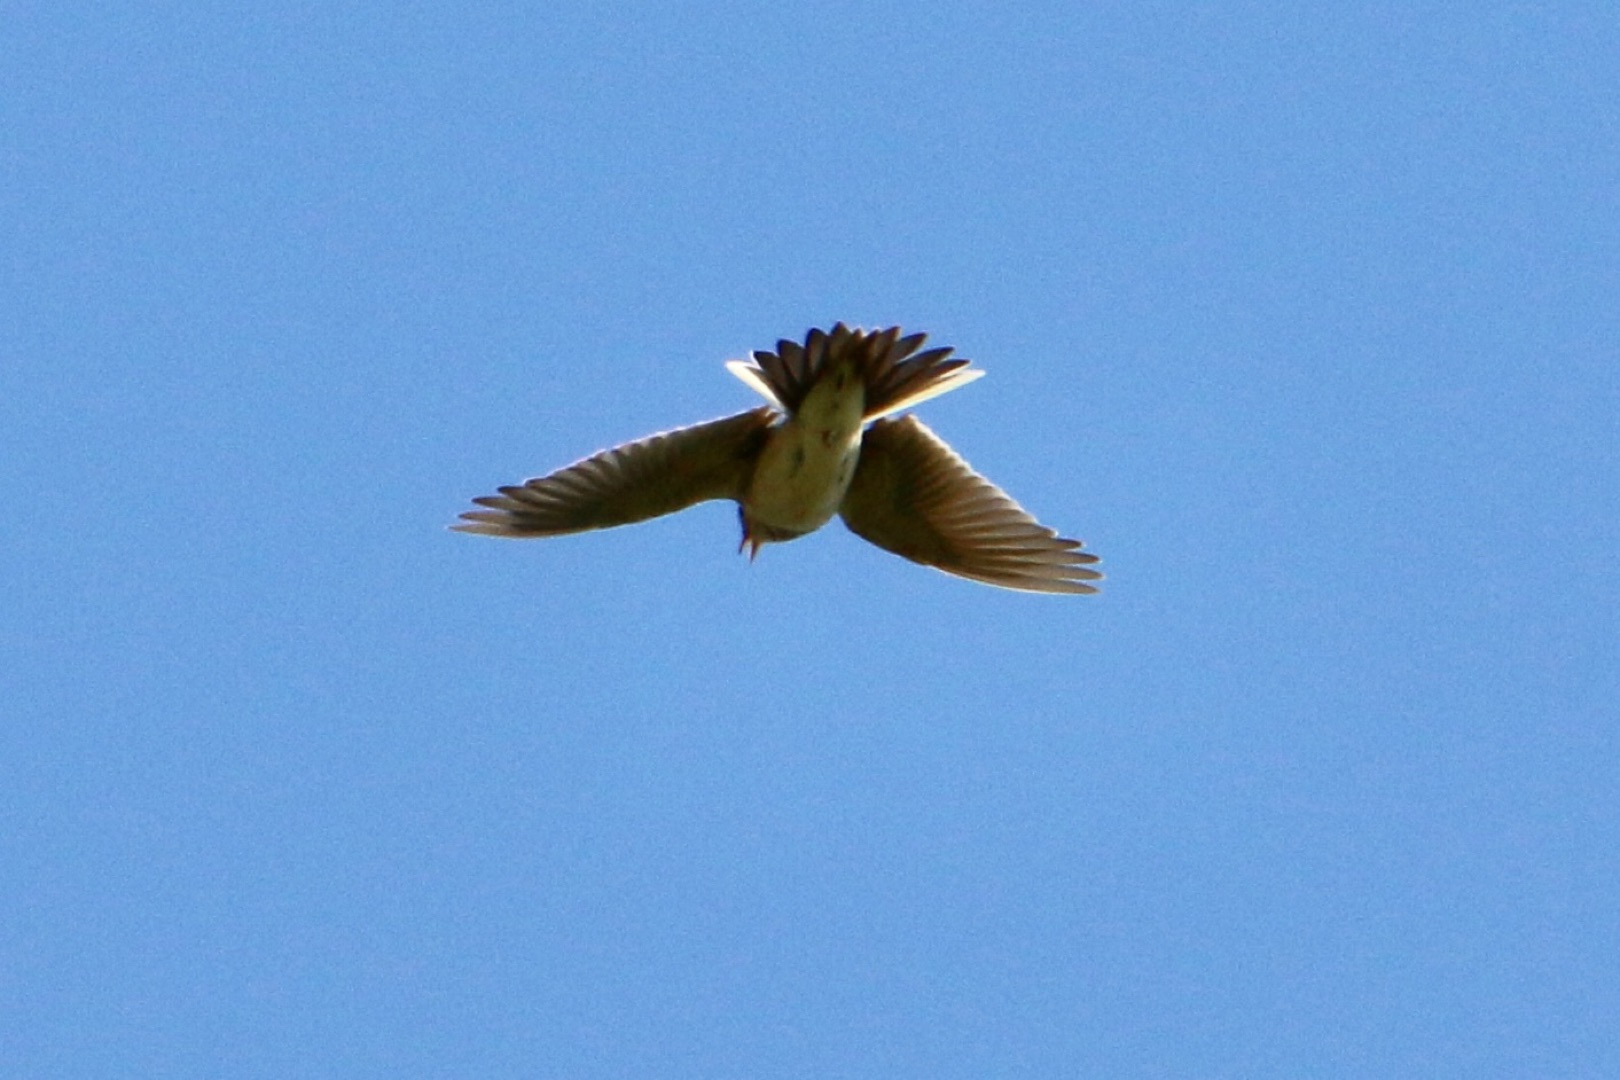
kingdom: Animalia
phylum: Chordata
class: Aves
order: Passeriformes
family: Alaudidae
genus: Alauda
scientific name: Alauda arvensis
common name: Sanglærke
